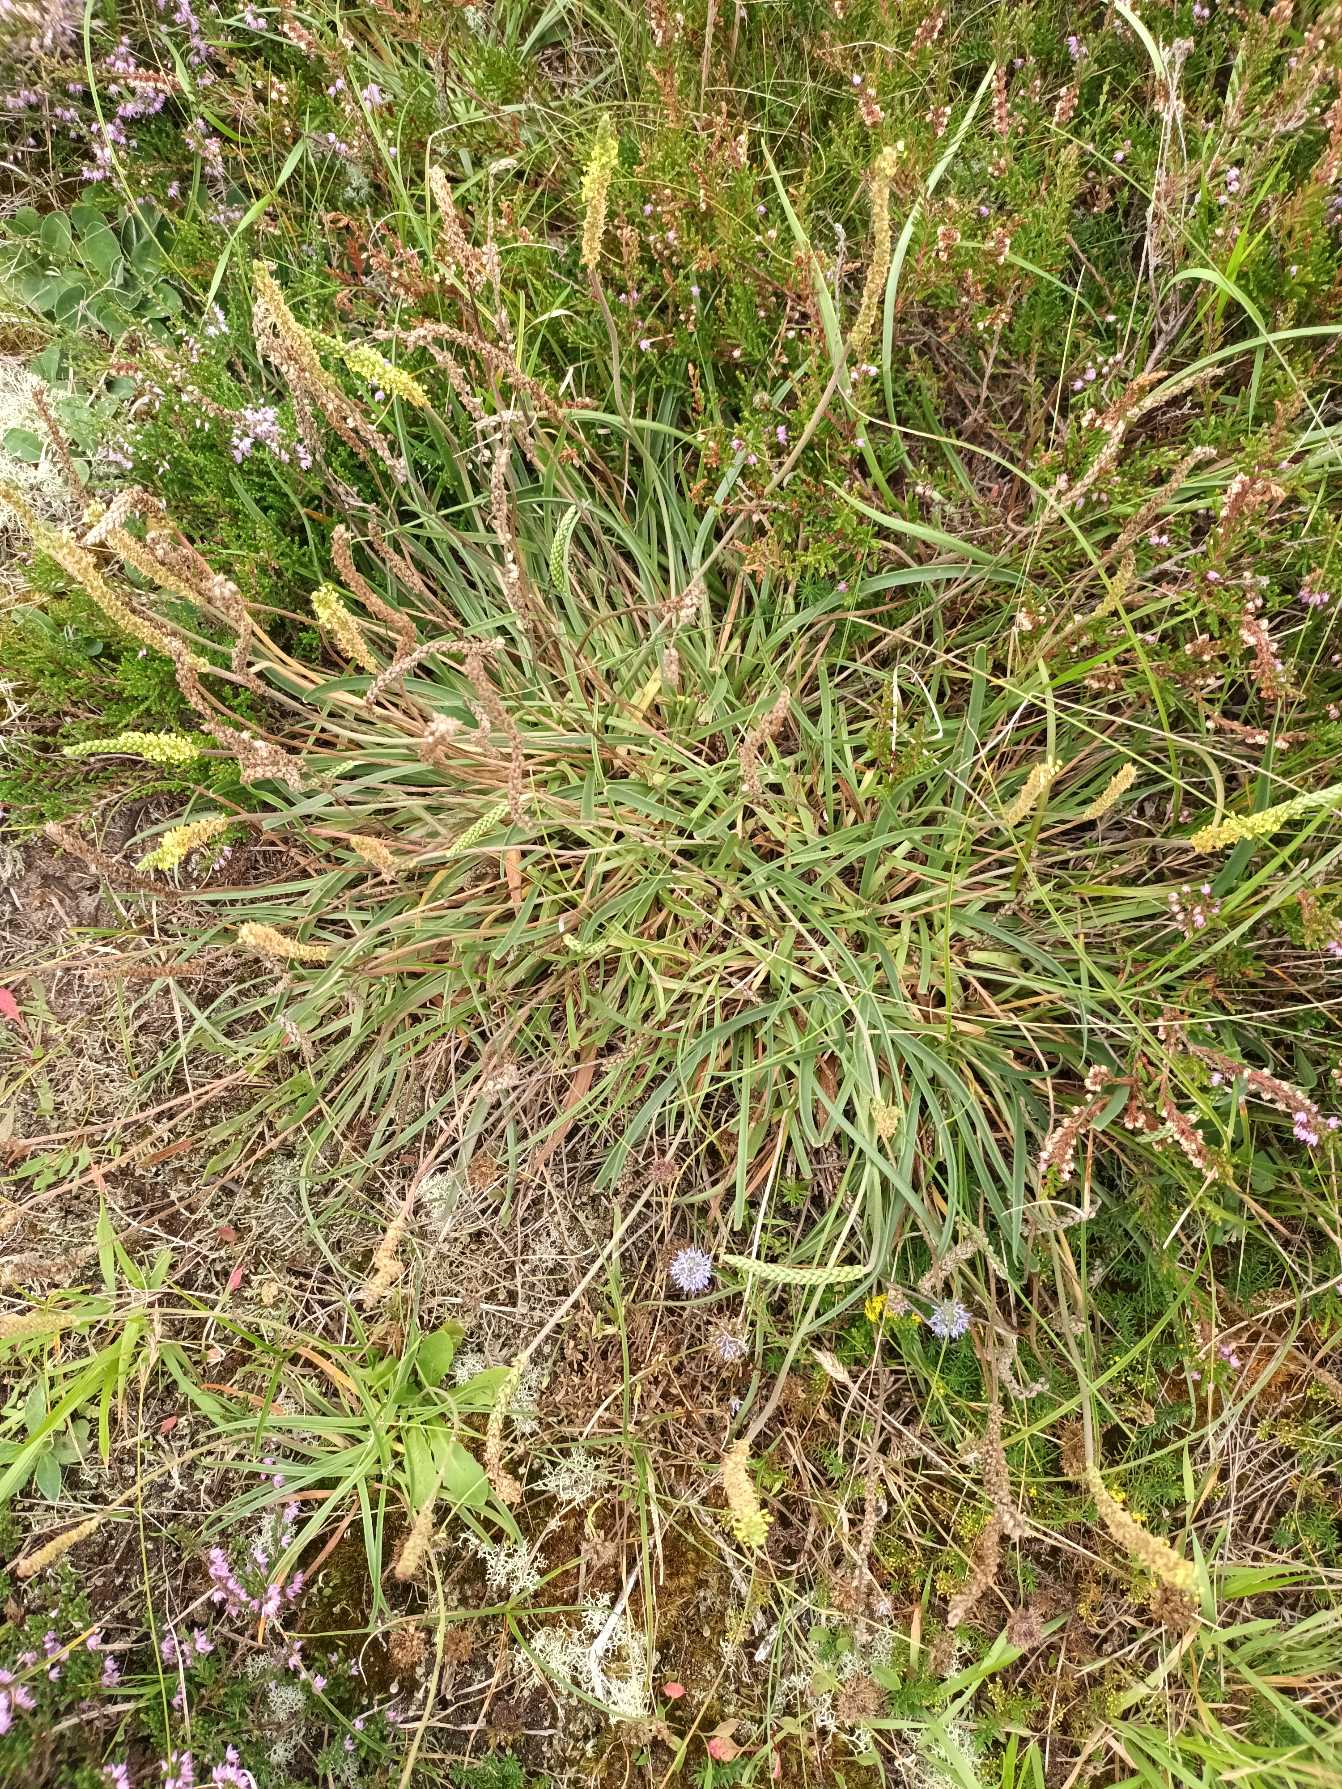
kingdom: Plantae
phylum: Tracheophyta
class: Magnoliopsida
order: Lamiales
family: Plantaginaceae
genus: Plantago
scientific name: Plantago maritima
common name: Strand-vejbred
